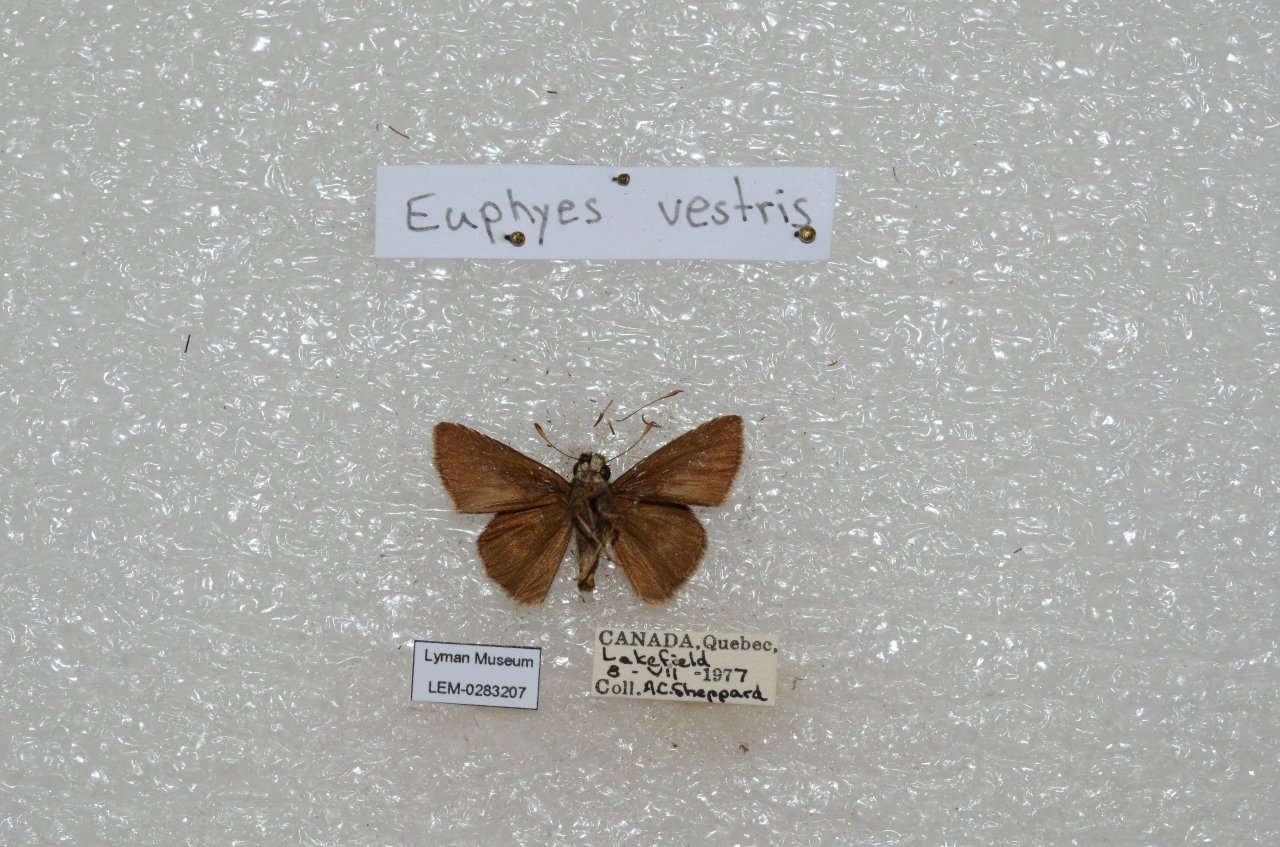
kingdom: Animalia
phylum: Arthropoda
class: Insecta
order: Lepidoptera
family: Hesperiidae
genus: Euphyes
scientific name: Euphyes vestris
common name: Dun Skipper
